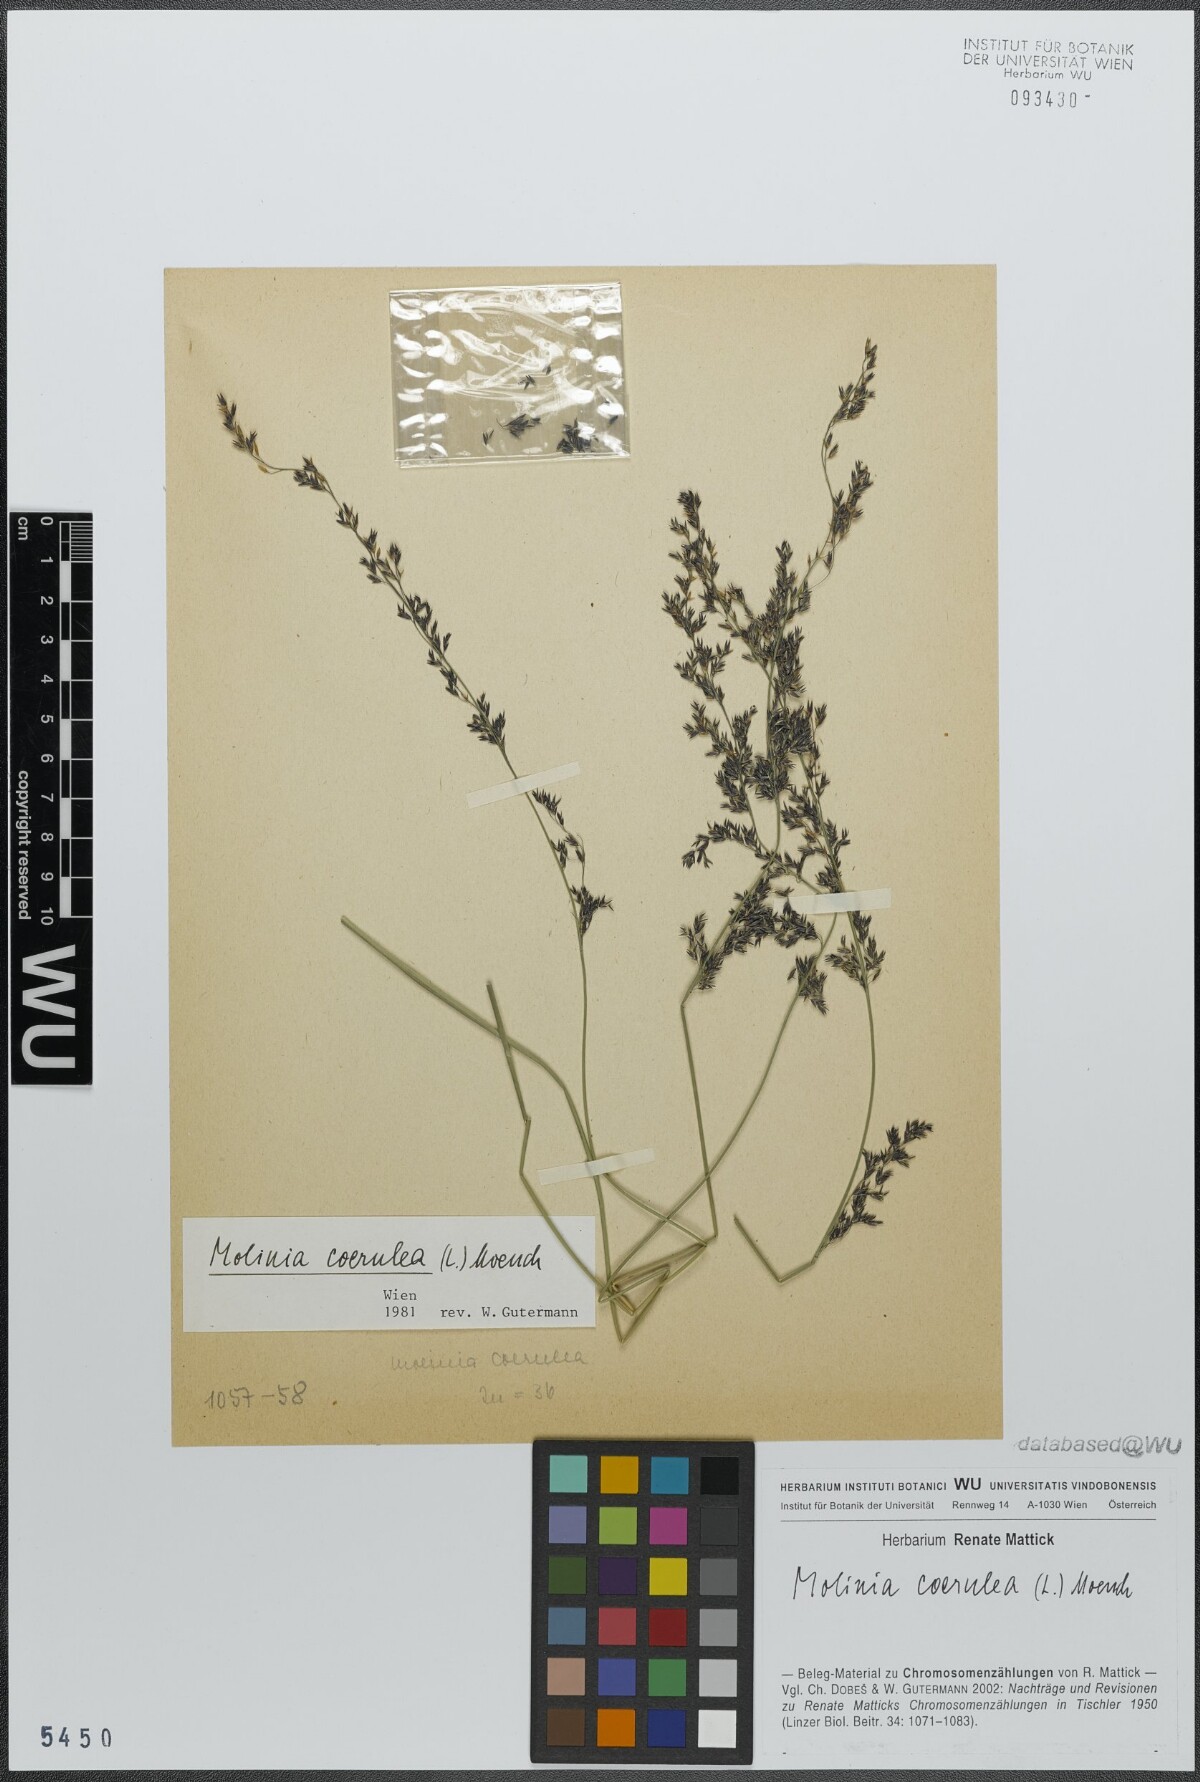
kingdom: Plantae
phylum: Tracheophyta
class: Liliopsida
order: Poales
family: Poaceae
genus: Molinia
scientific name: Molinia caerulea
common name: Purple moor-grass
